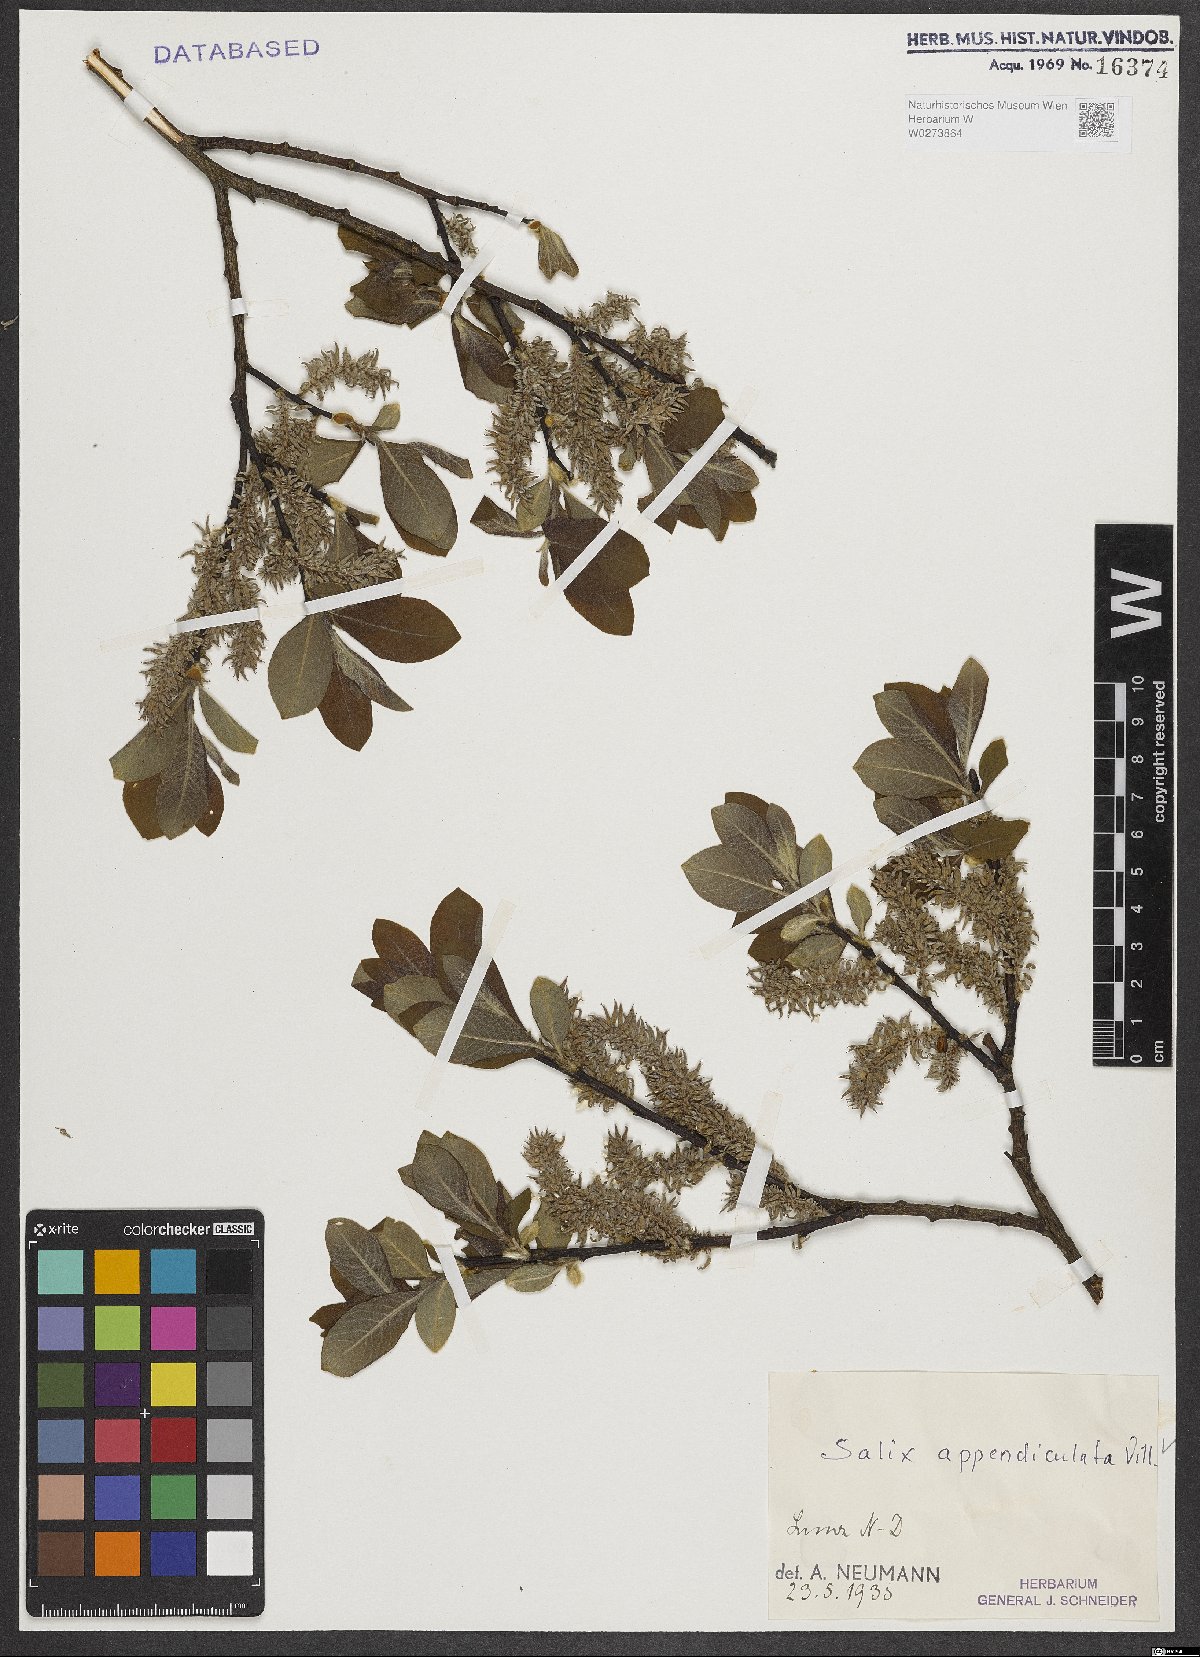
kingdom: Plantae
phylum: Tracheophyta
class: Magnoliopsida
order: Malpighiales
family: Salicaceae
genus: Salix
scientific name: Salix appendiculata
